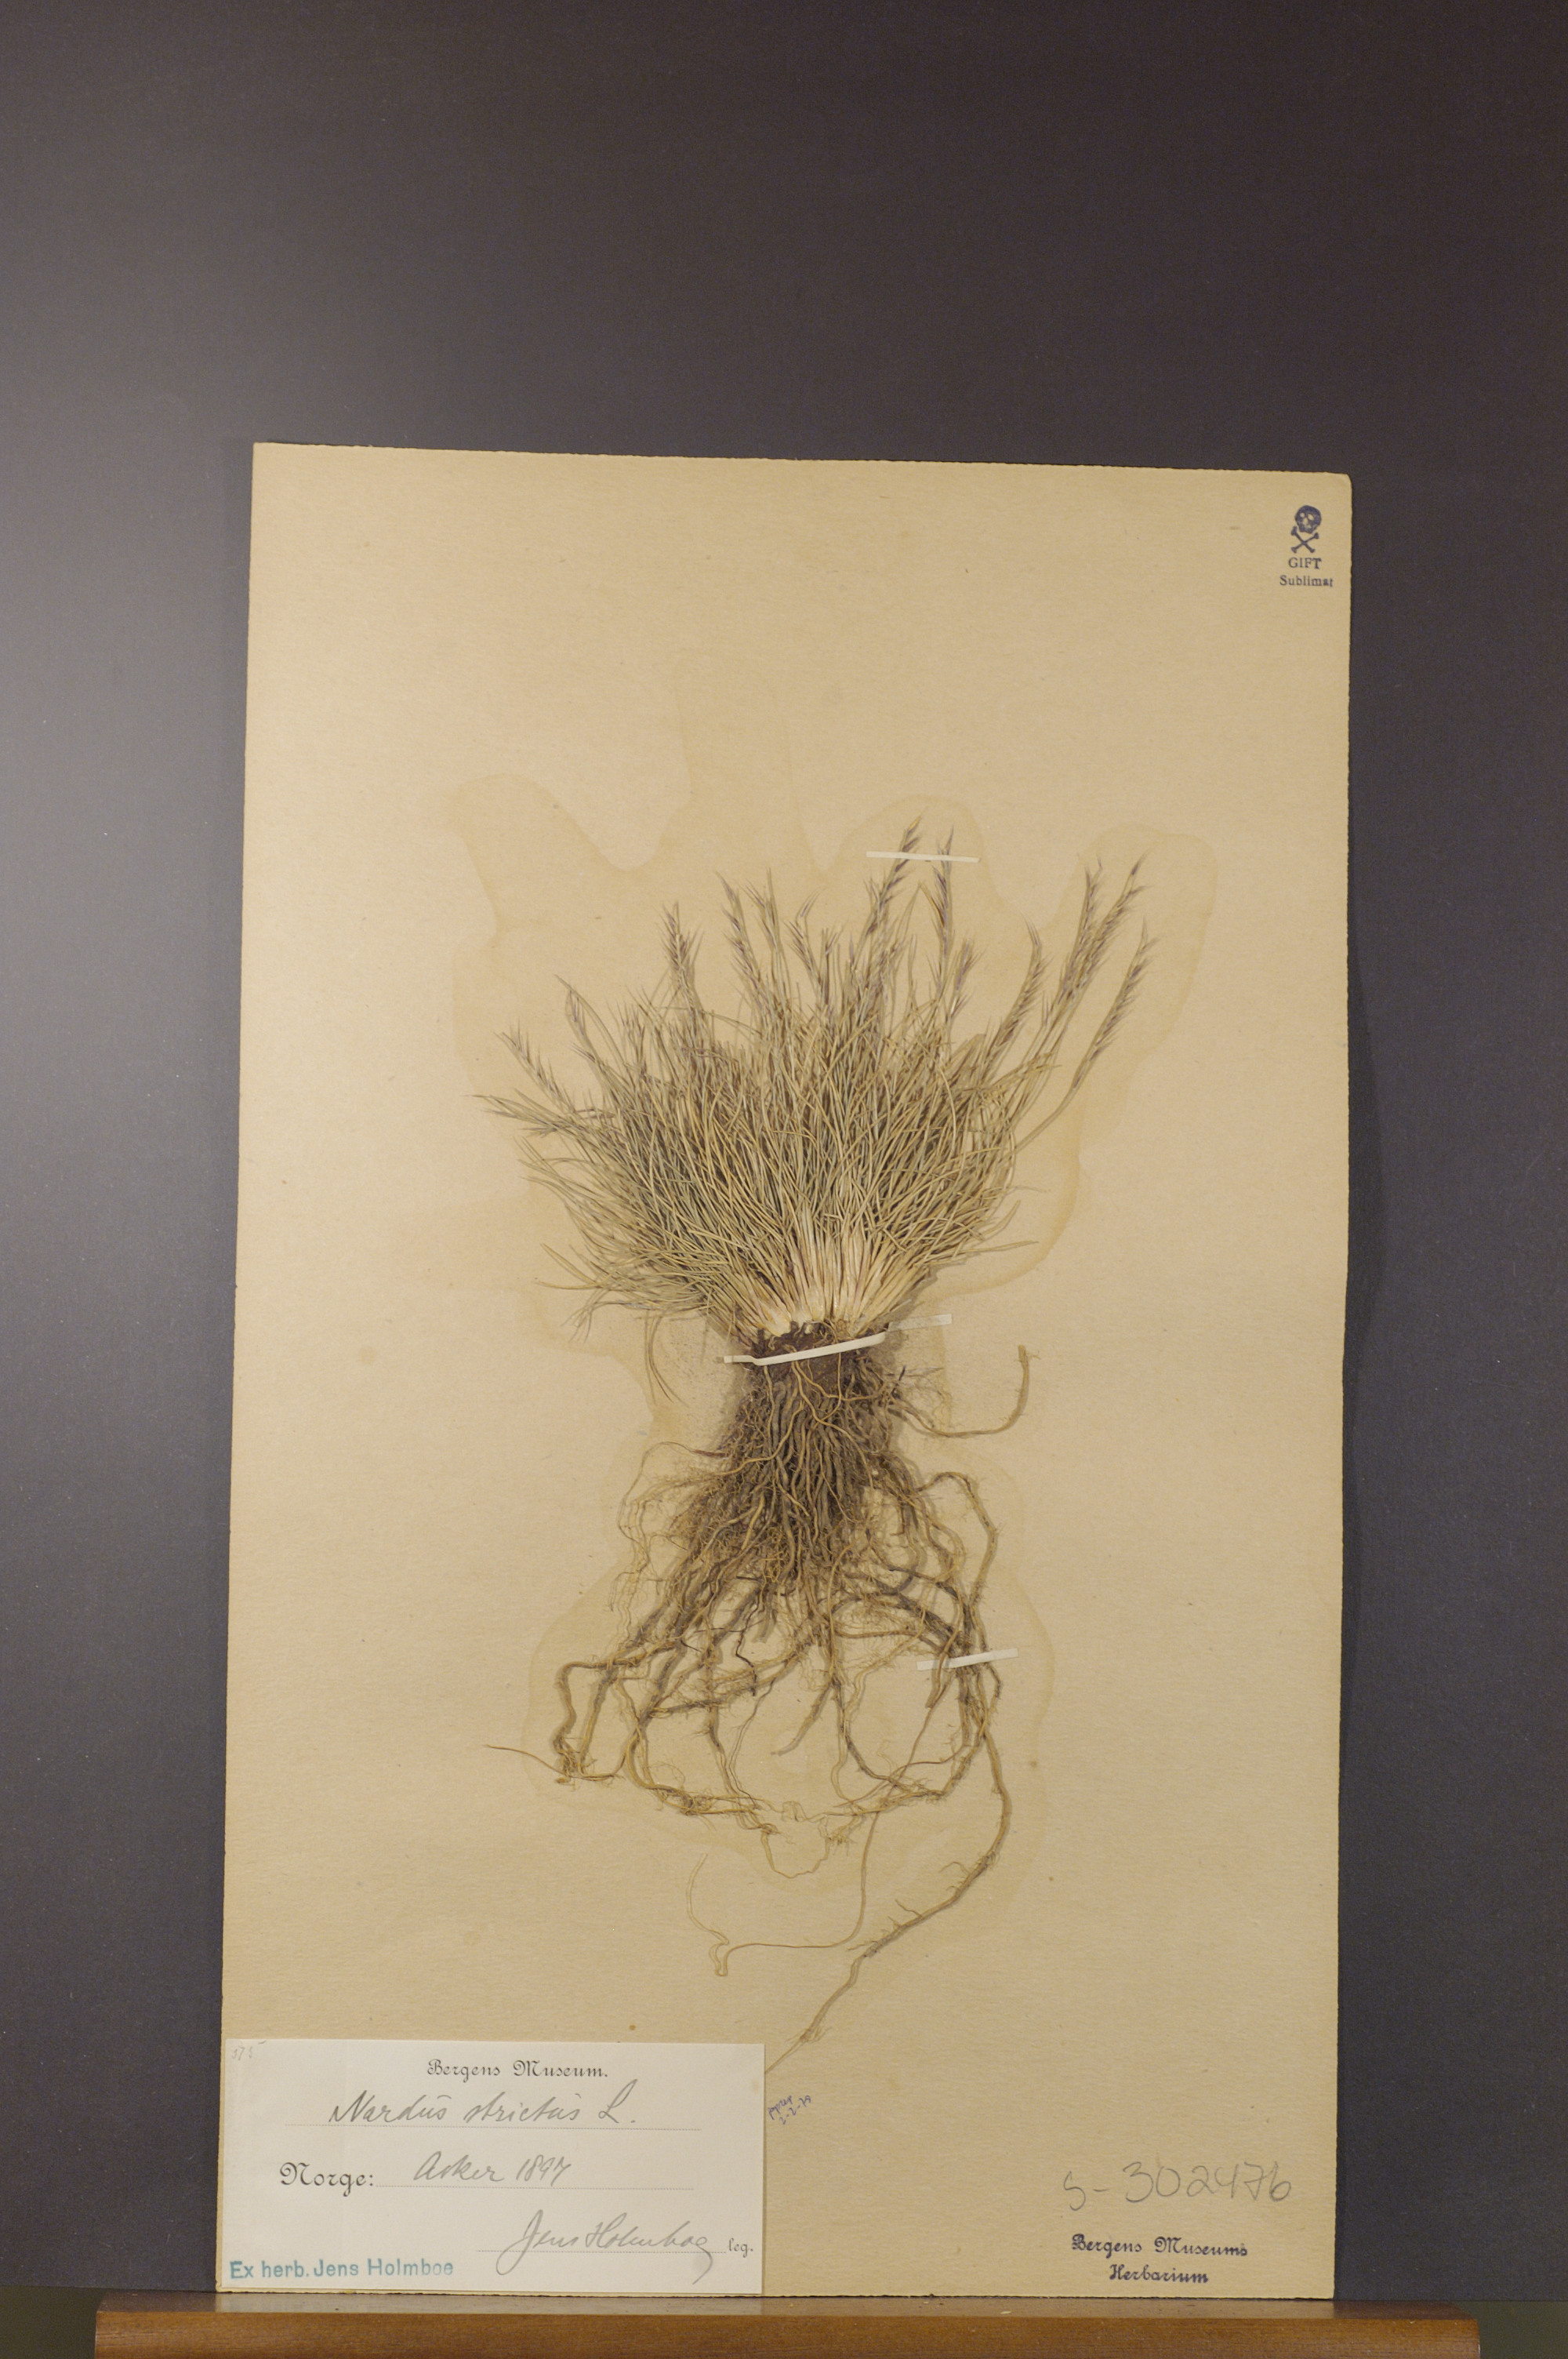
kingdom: Plantae
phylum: Tracheophyta
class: Liliopsida
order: Poales
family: Poaceae
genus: Nardus
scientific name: Nardus stricta
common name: Mat-grass
